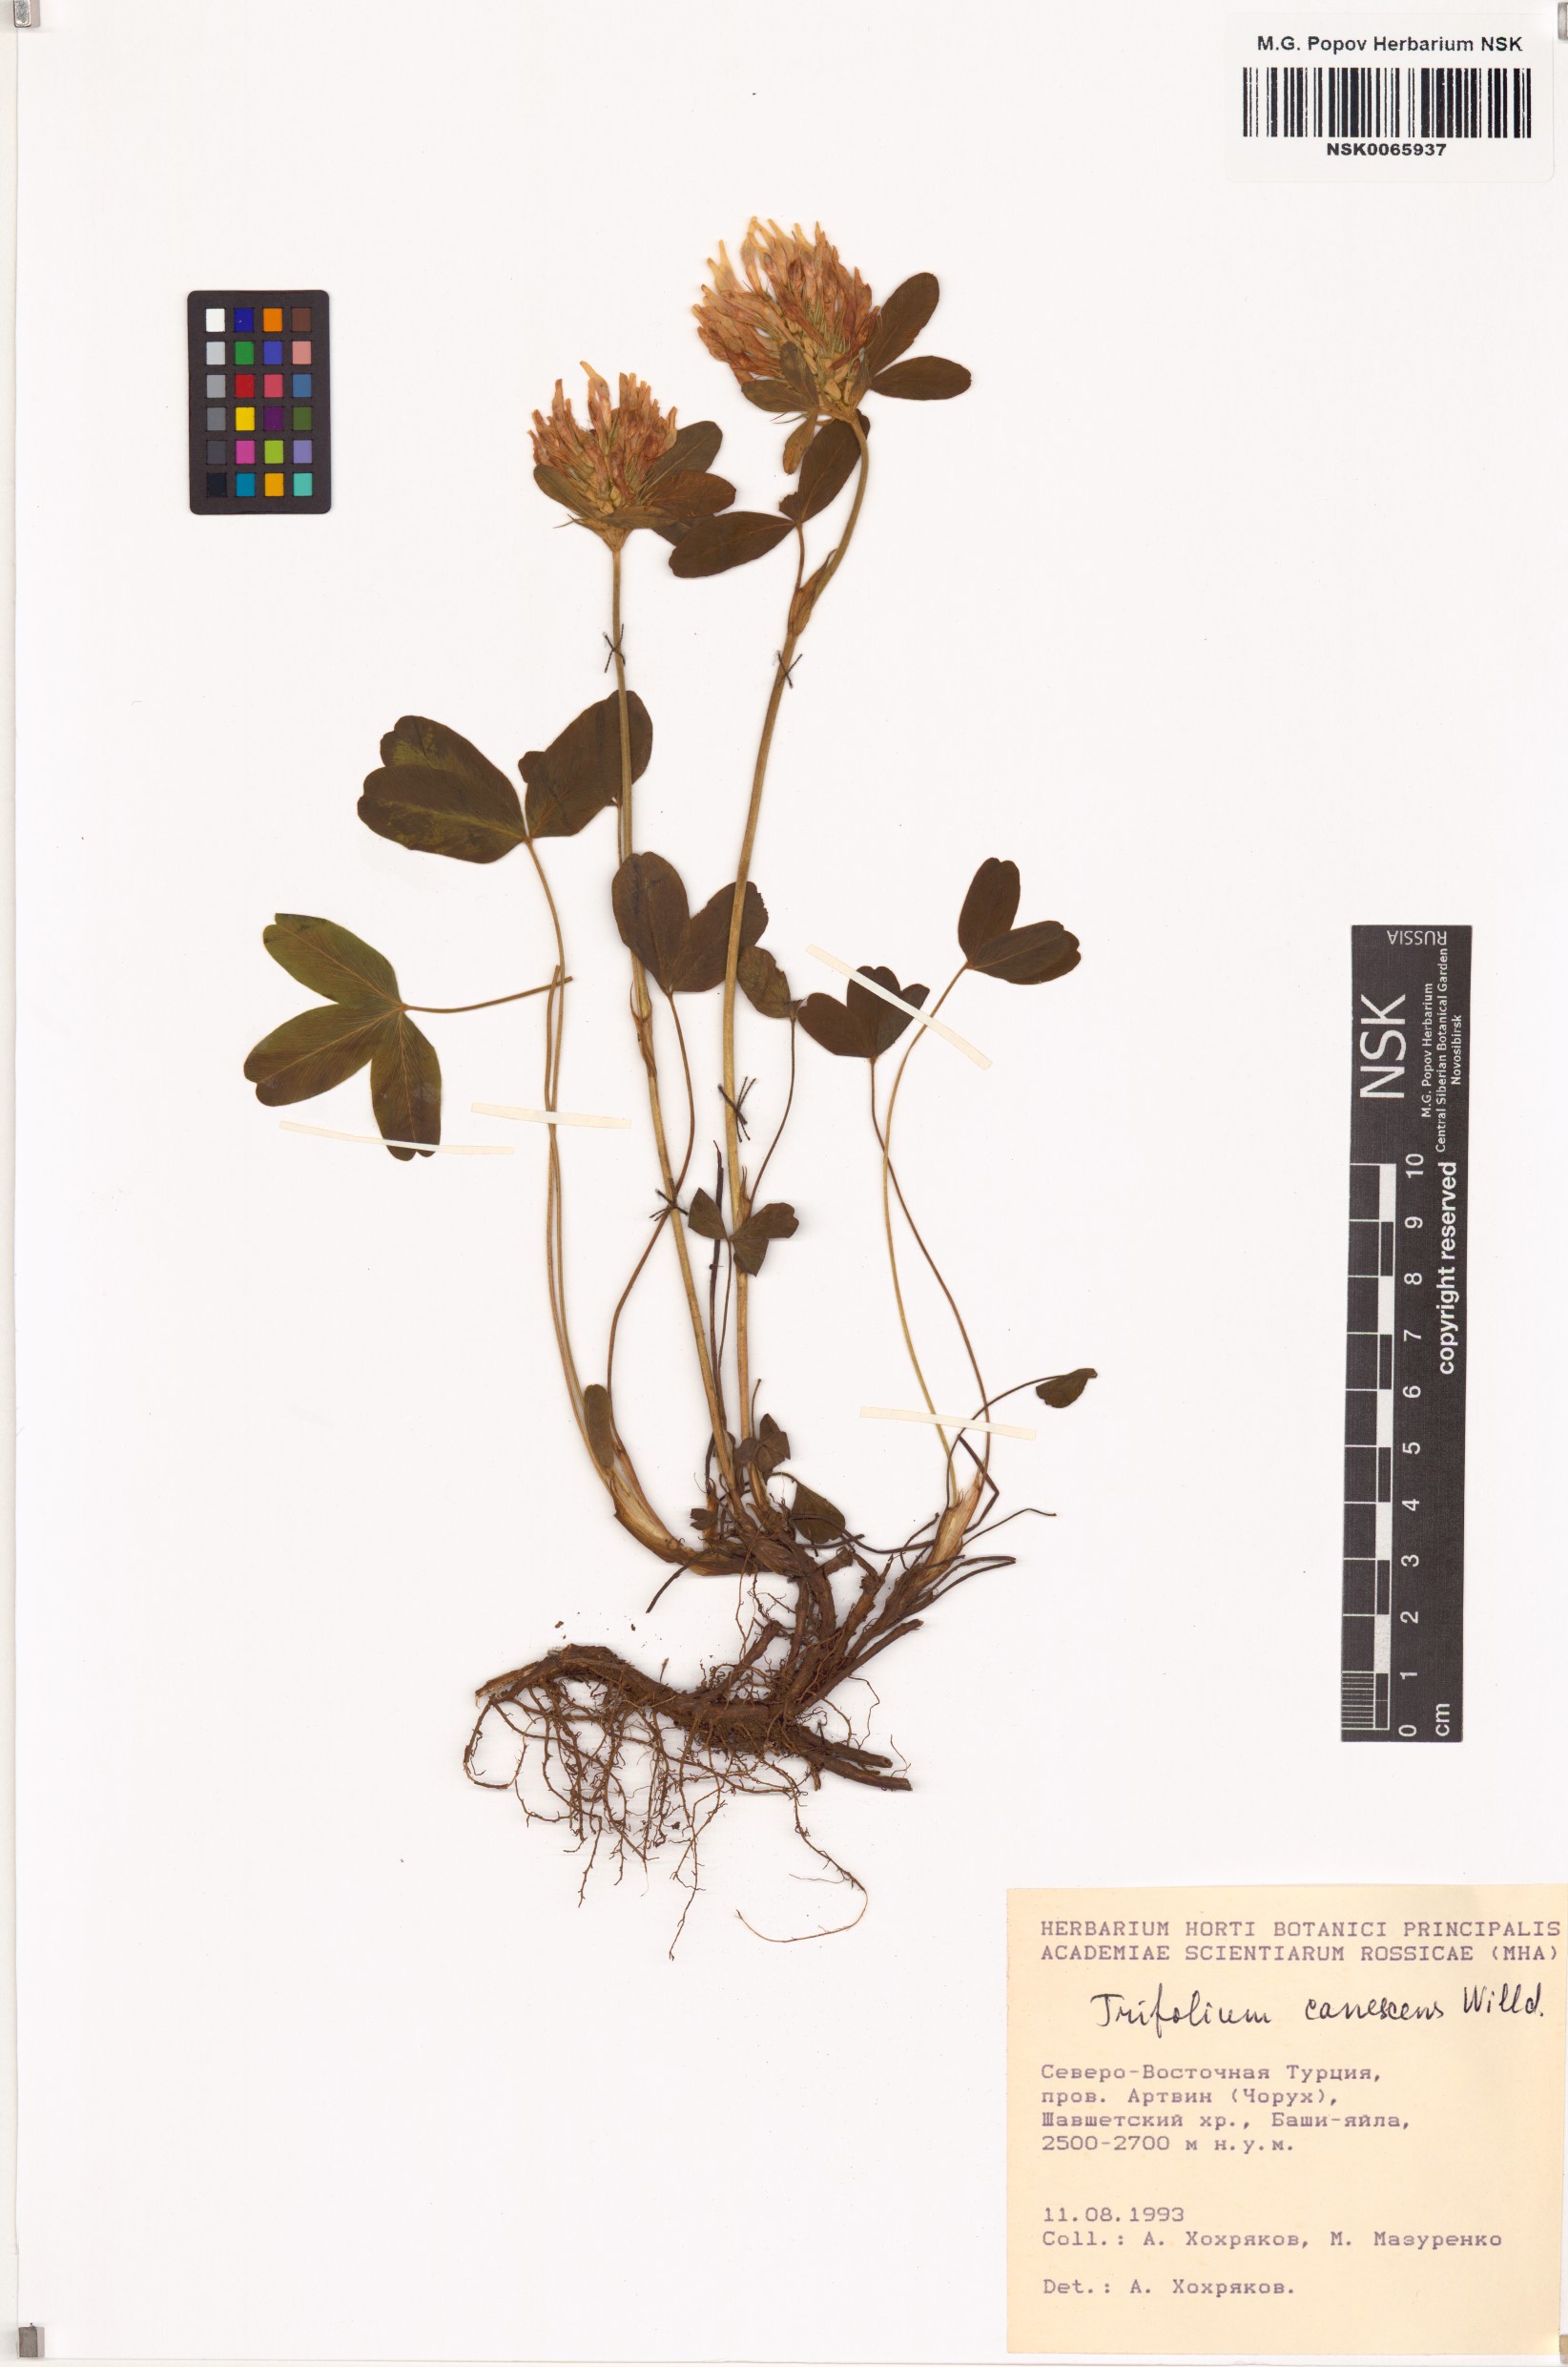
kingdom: Plantae
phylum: Tracheophyta
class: Magnoliopsida
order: Fabales
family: Fabaceae
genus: Trifolium
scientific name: Trifolium canescens
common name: Graying clover
